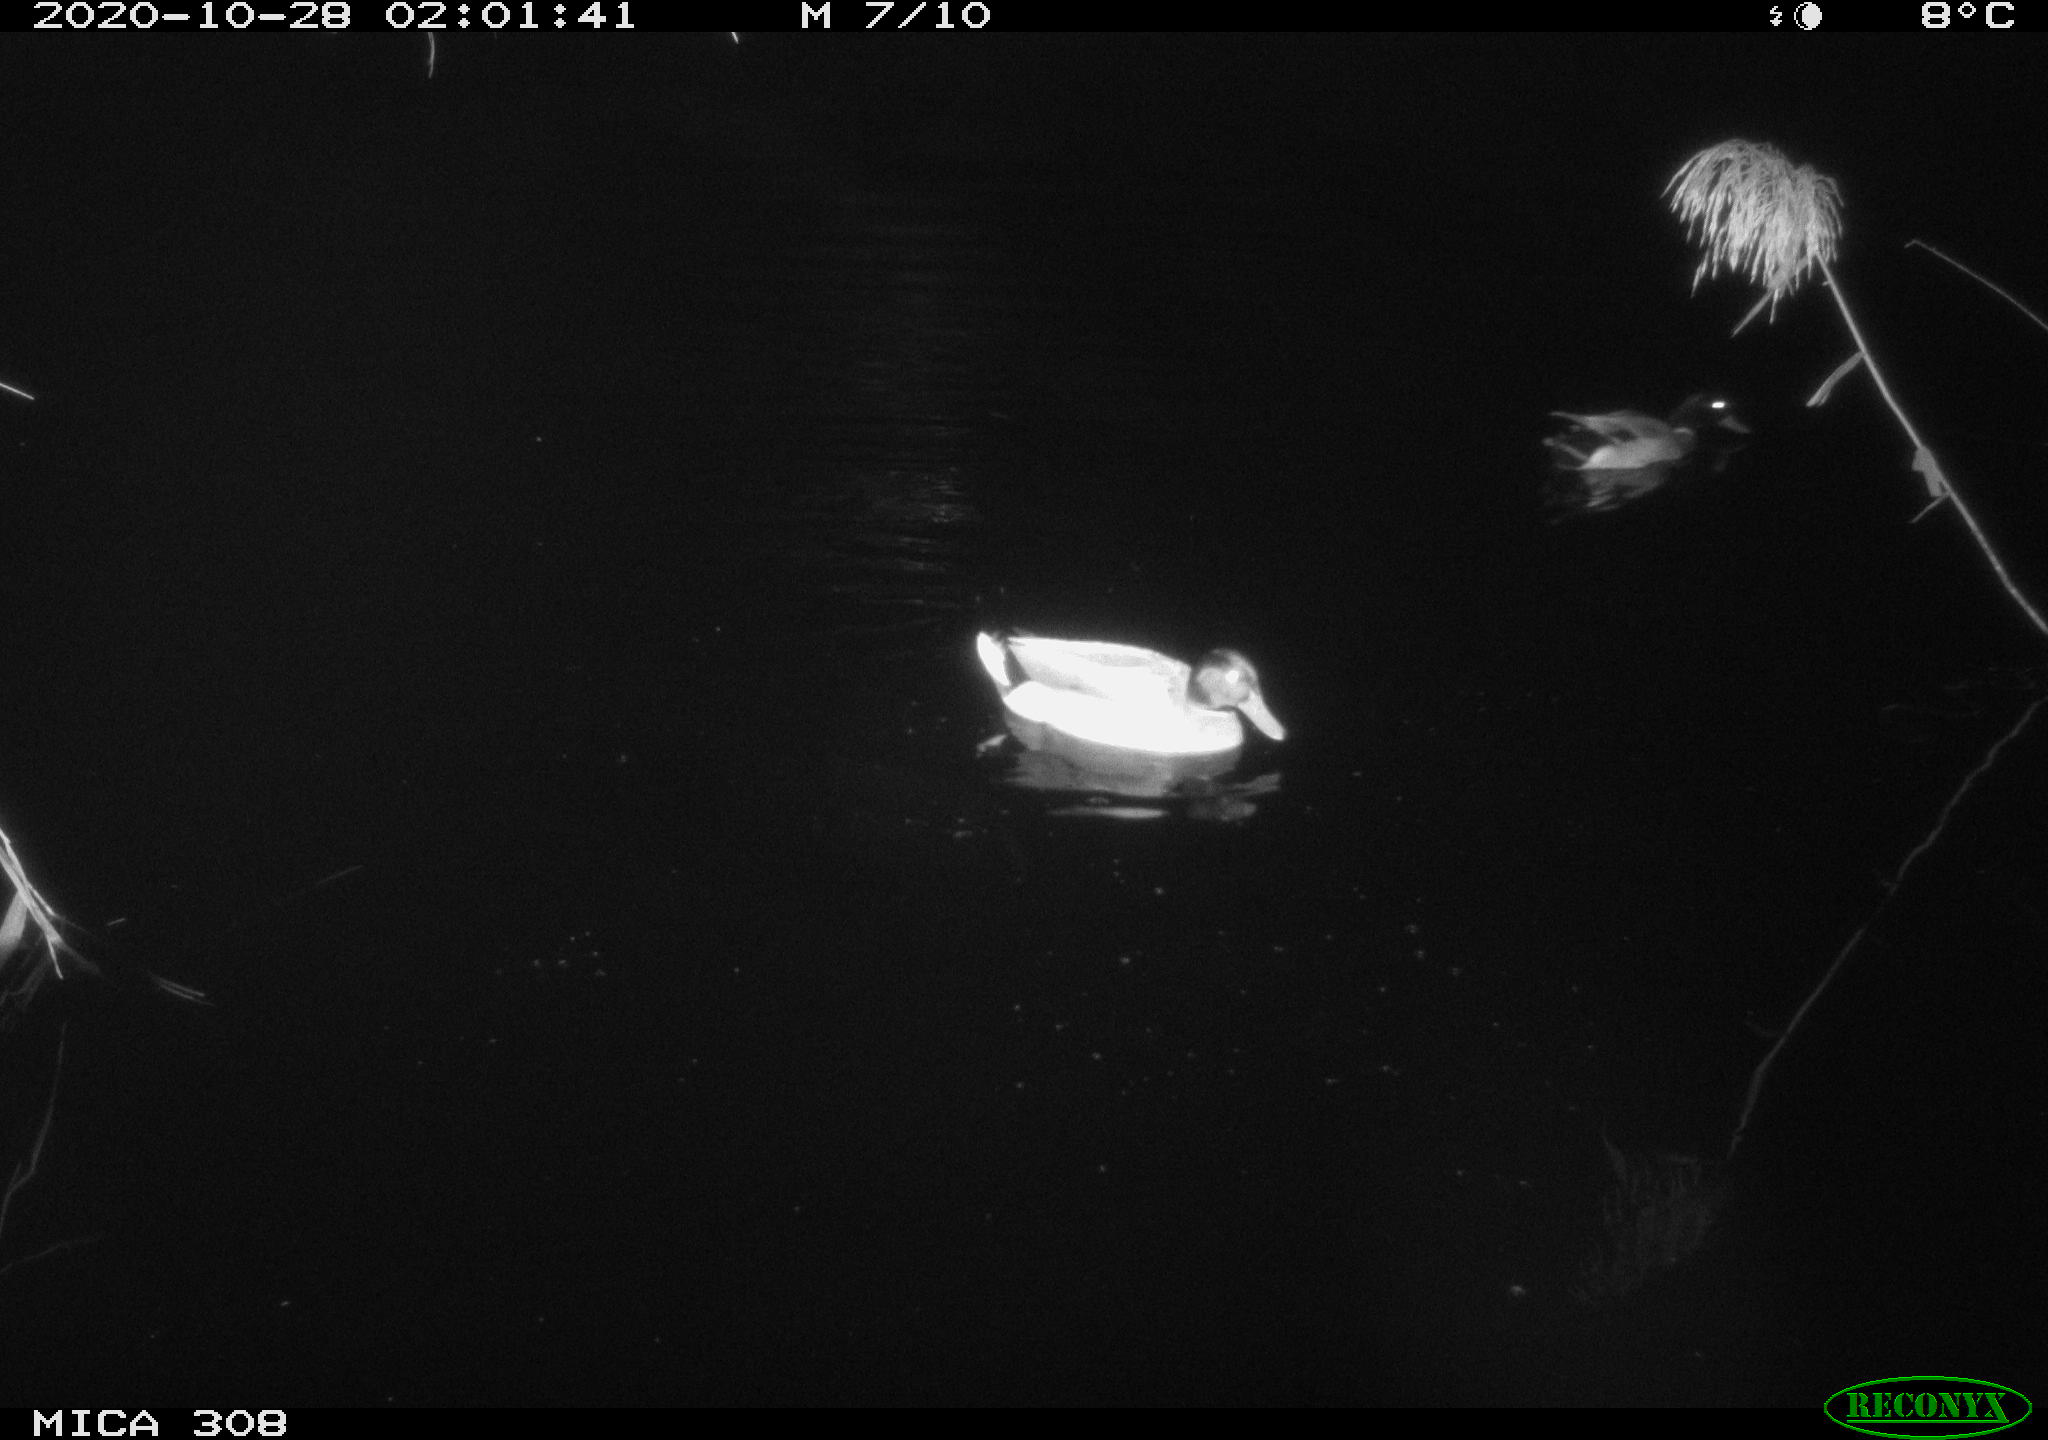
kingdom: Animalia
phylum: Chordata
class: Aves
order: Anseriformes
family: Anatidae
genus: Anas
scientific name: Anas platyrhynchos
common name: Mallard
